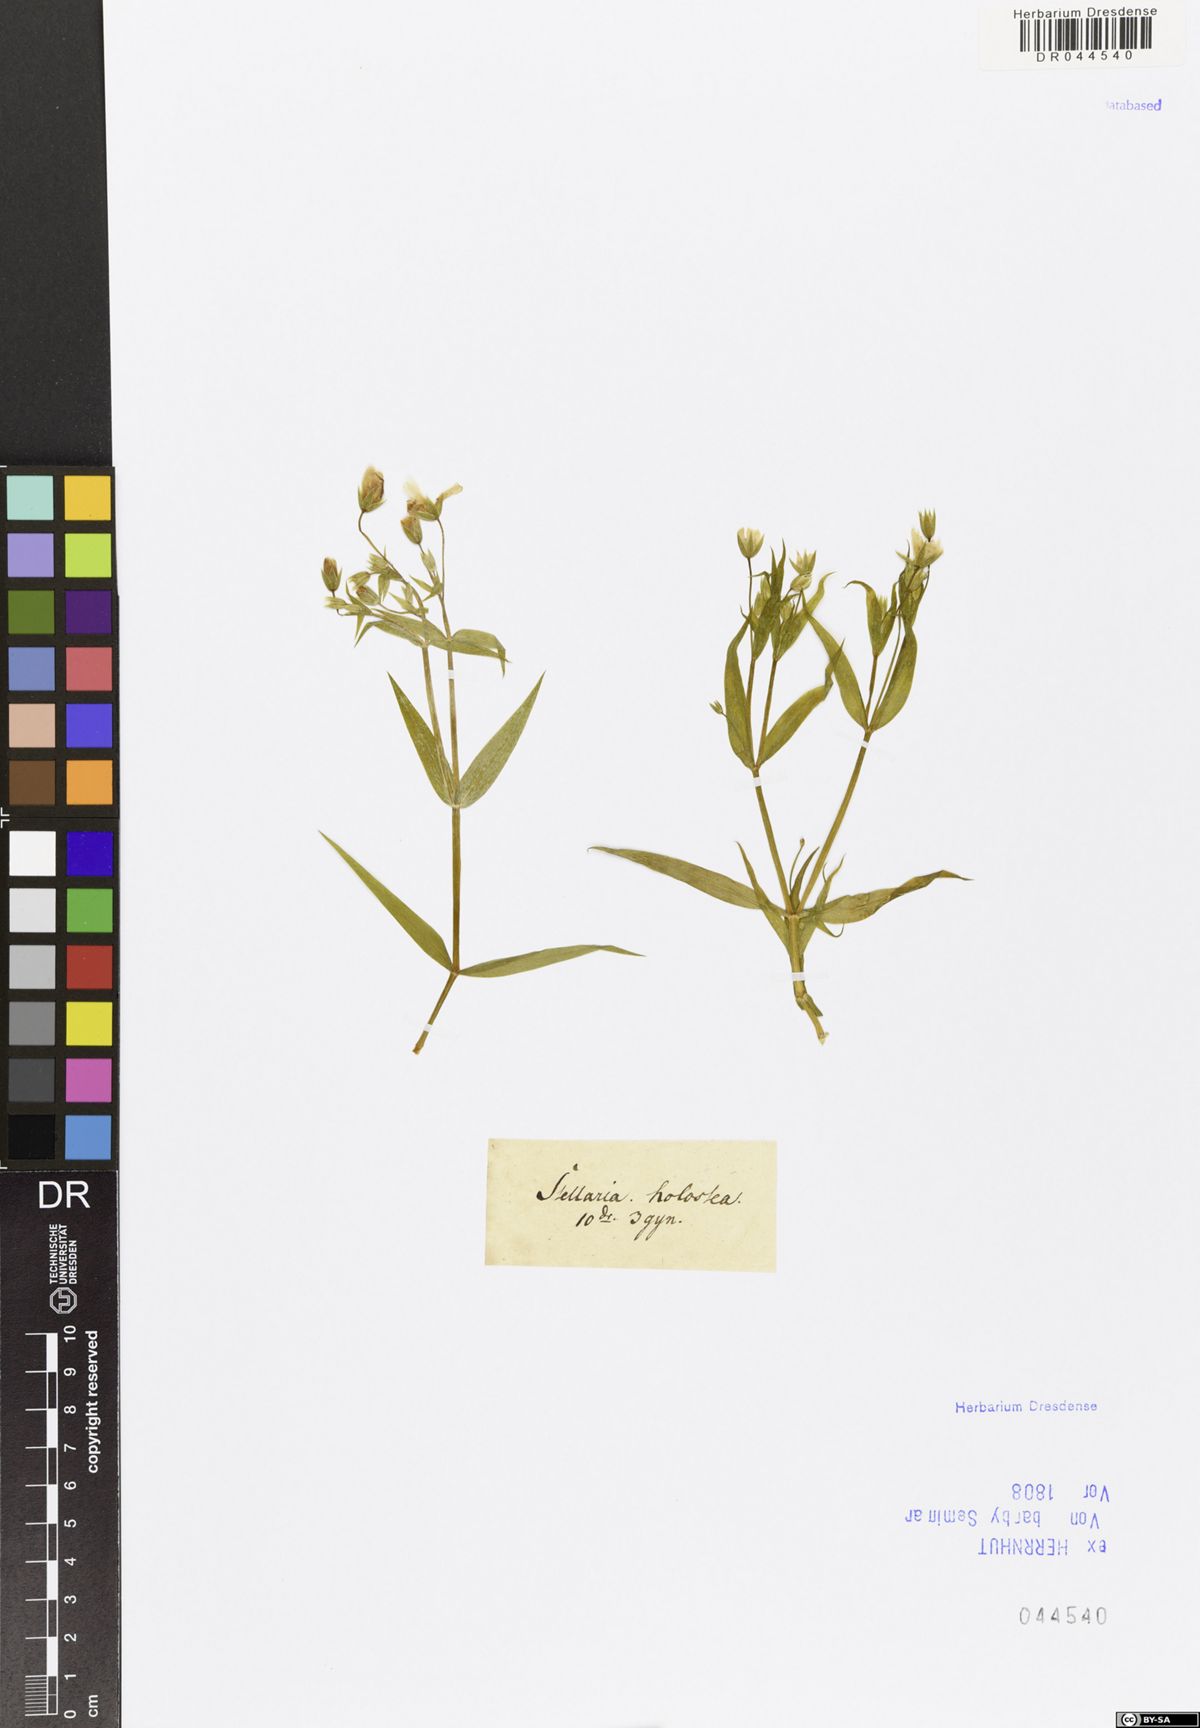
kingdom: Plantae
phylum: Tracheophyta
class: Magnoliopsida
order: Caryophyllales
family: Caryophyllaceae
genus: Rabelera
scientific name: Rabelera holostea
